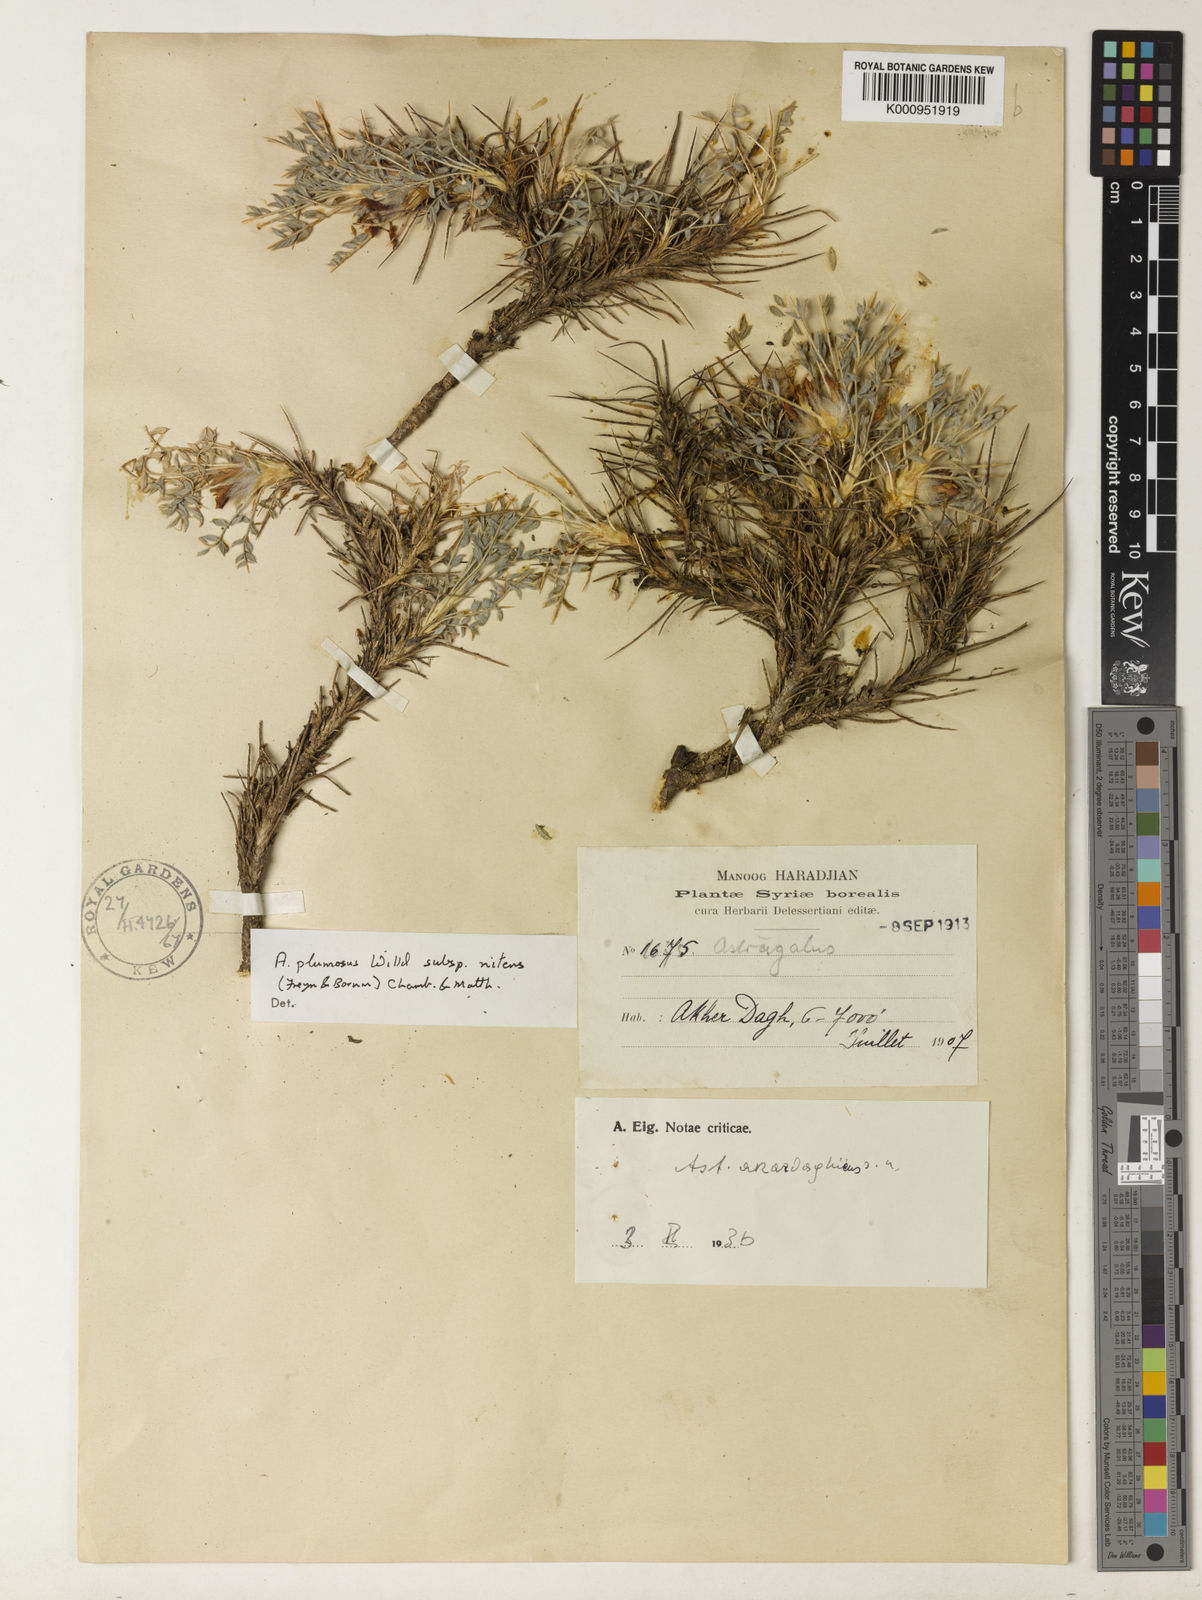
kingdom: Plantae
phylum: Tracheophyta
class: Magnoliopsida
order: Fabales
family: Fabaceae
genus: Astragalus
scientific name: Astragalus plumosus
